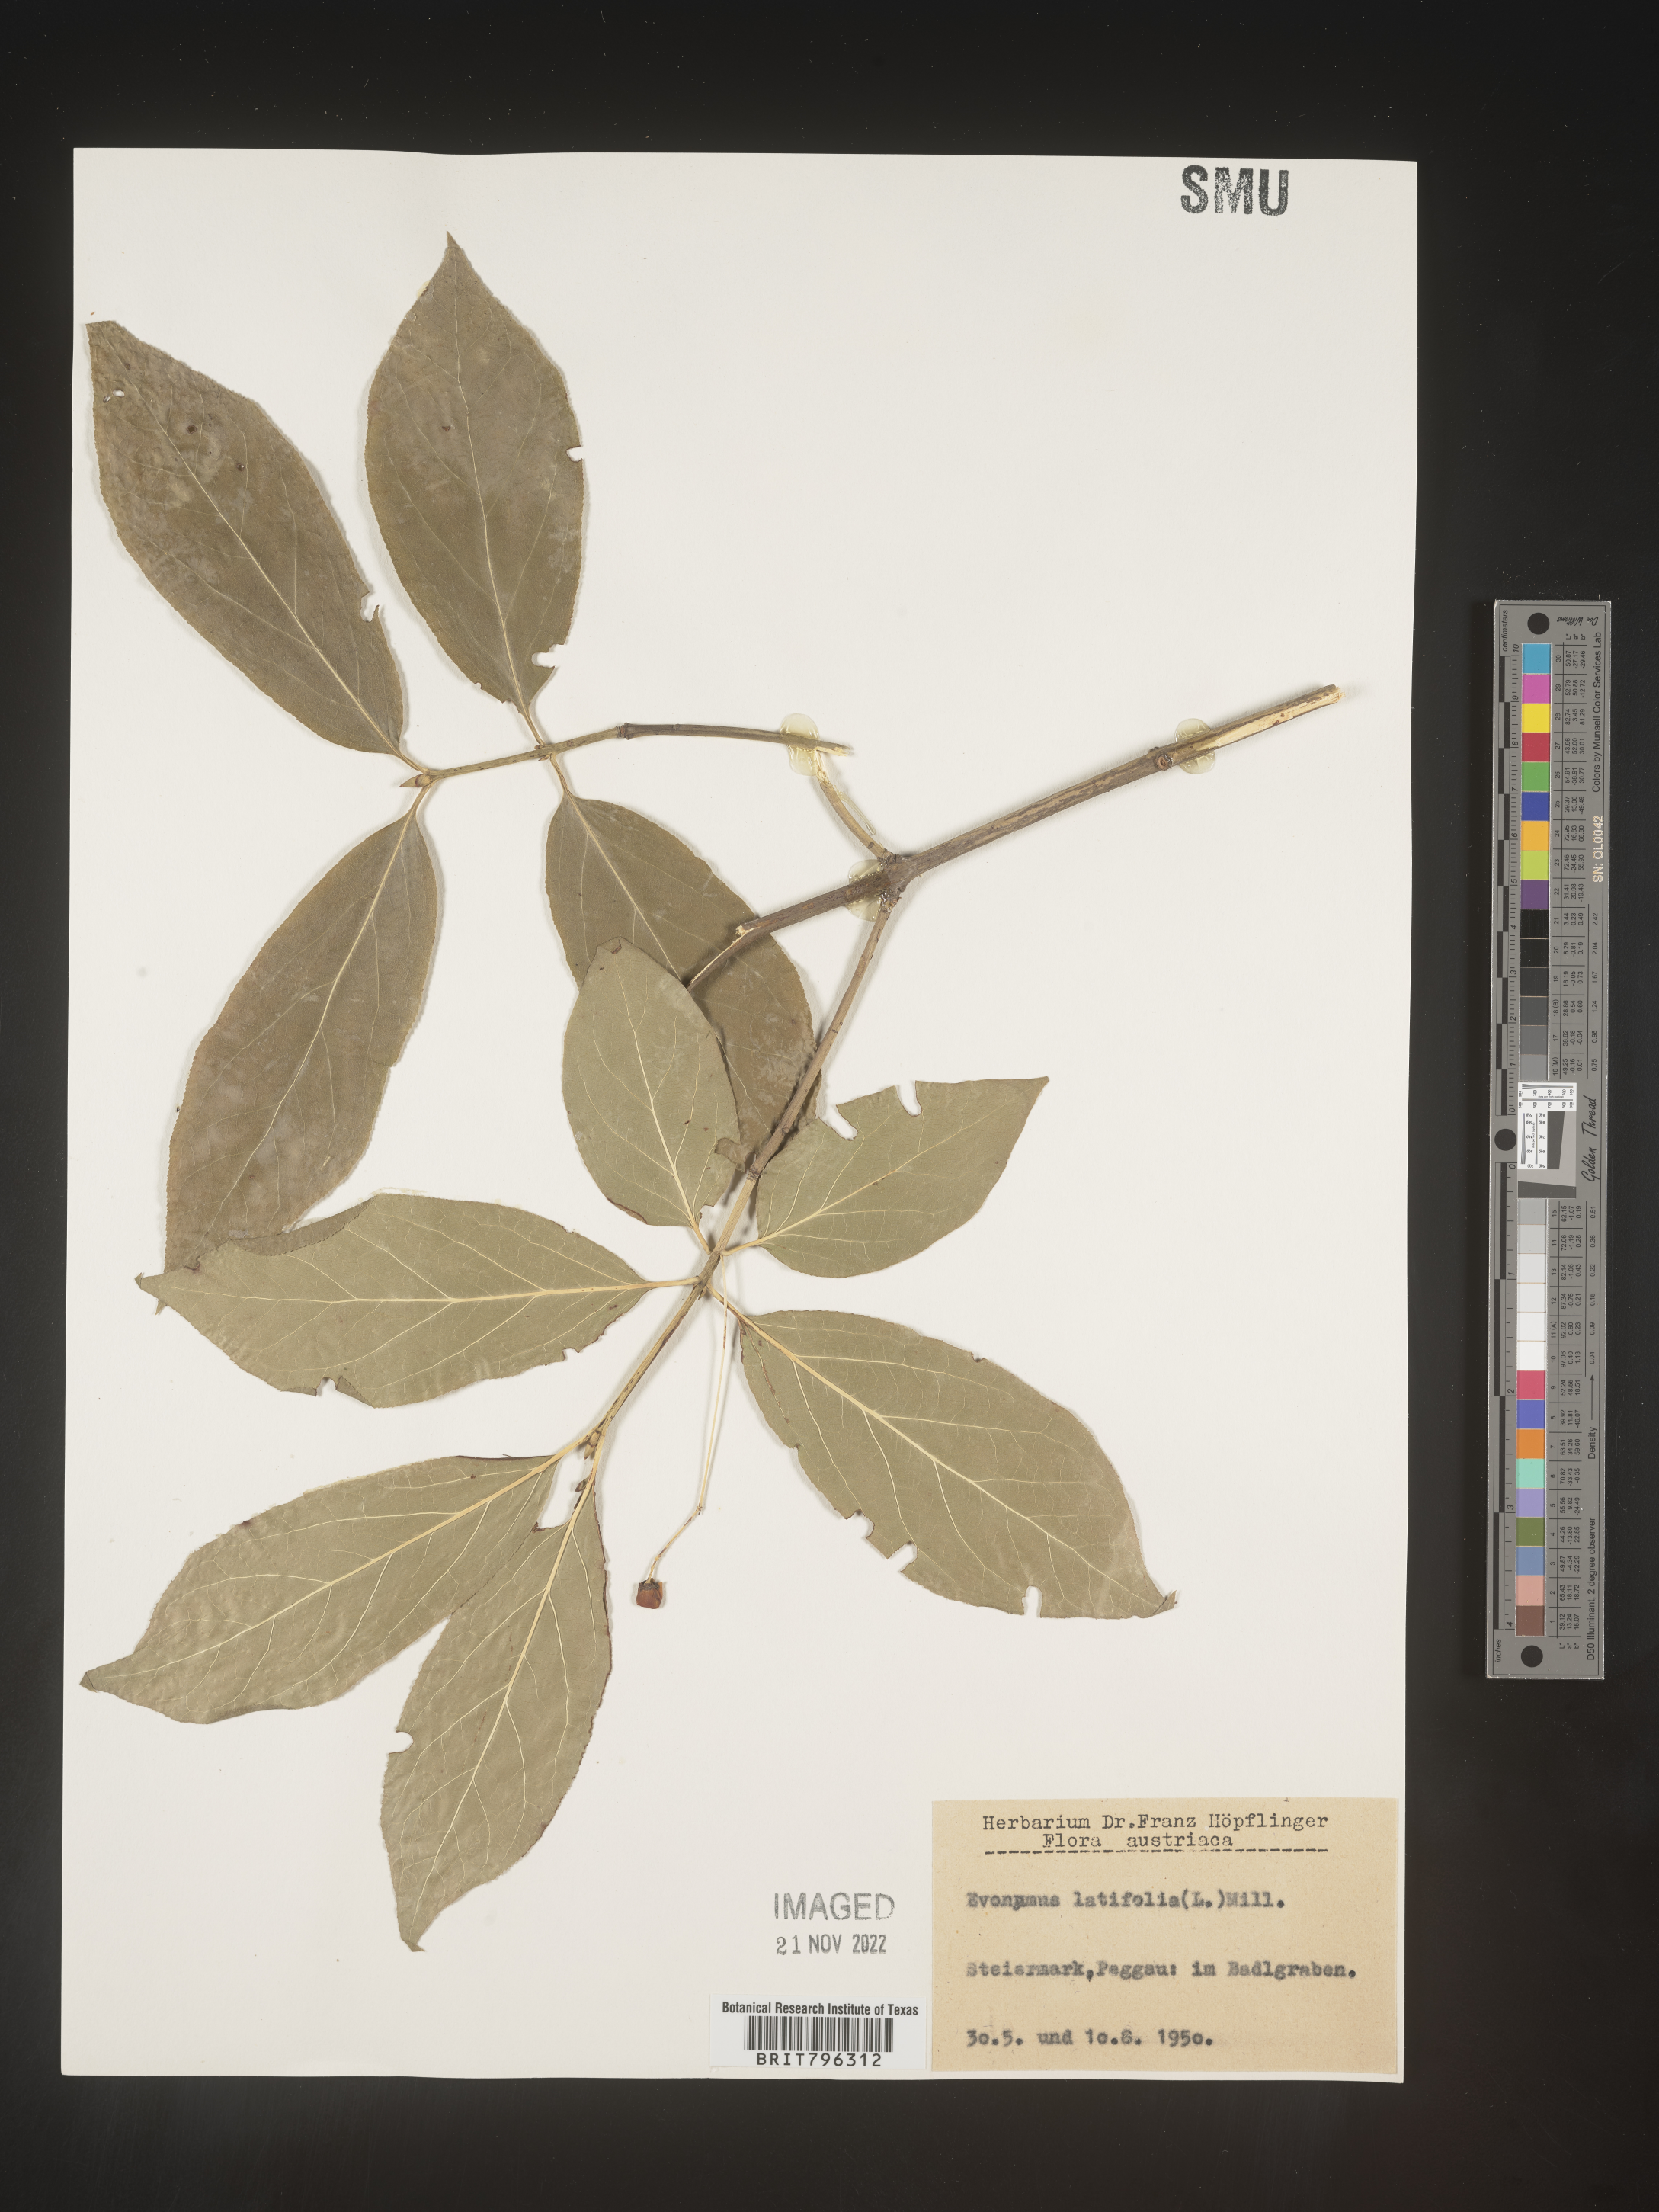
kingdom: Plantae
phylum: Tracheophyta
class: Magnoliopsida
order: Celastrales
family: Celastraceae
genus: Euonymus
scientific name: Euonymus
